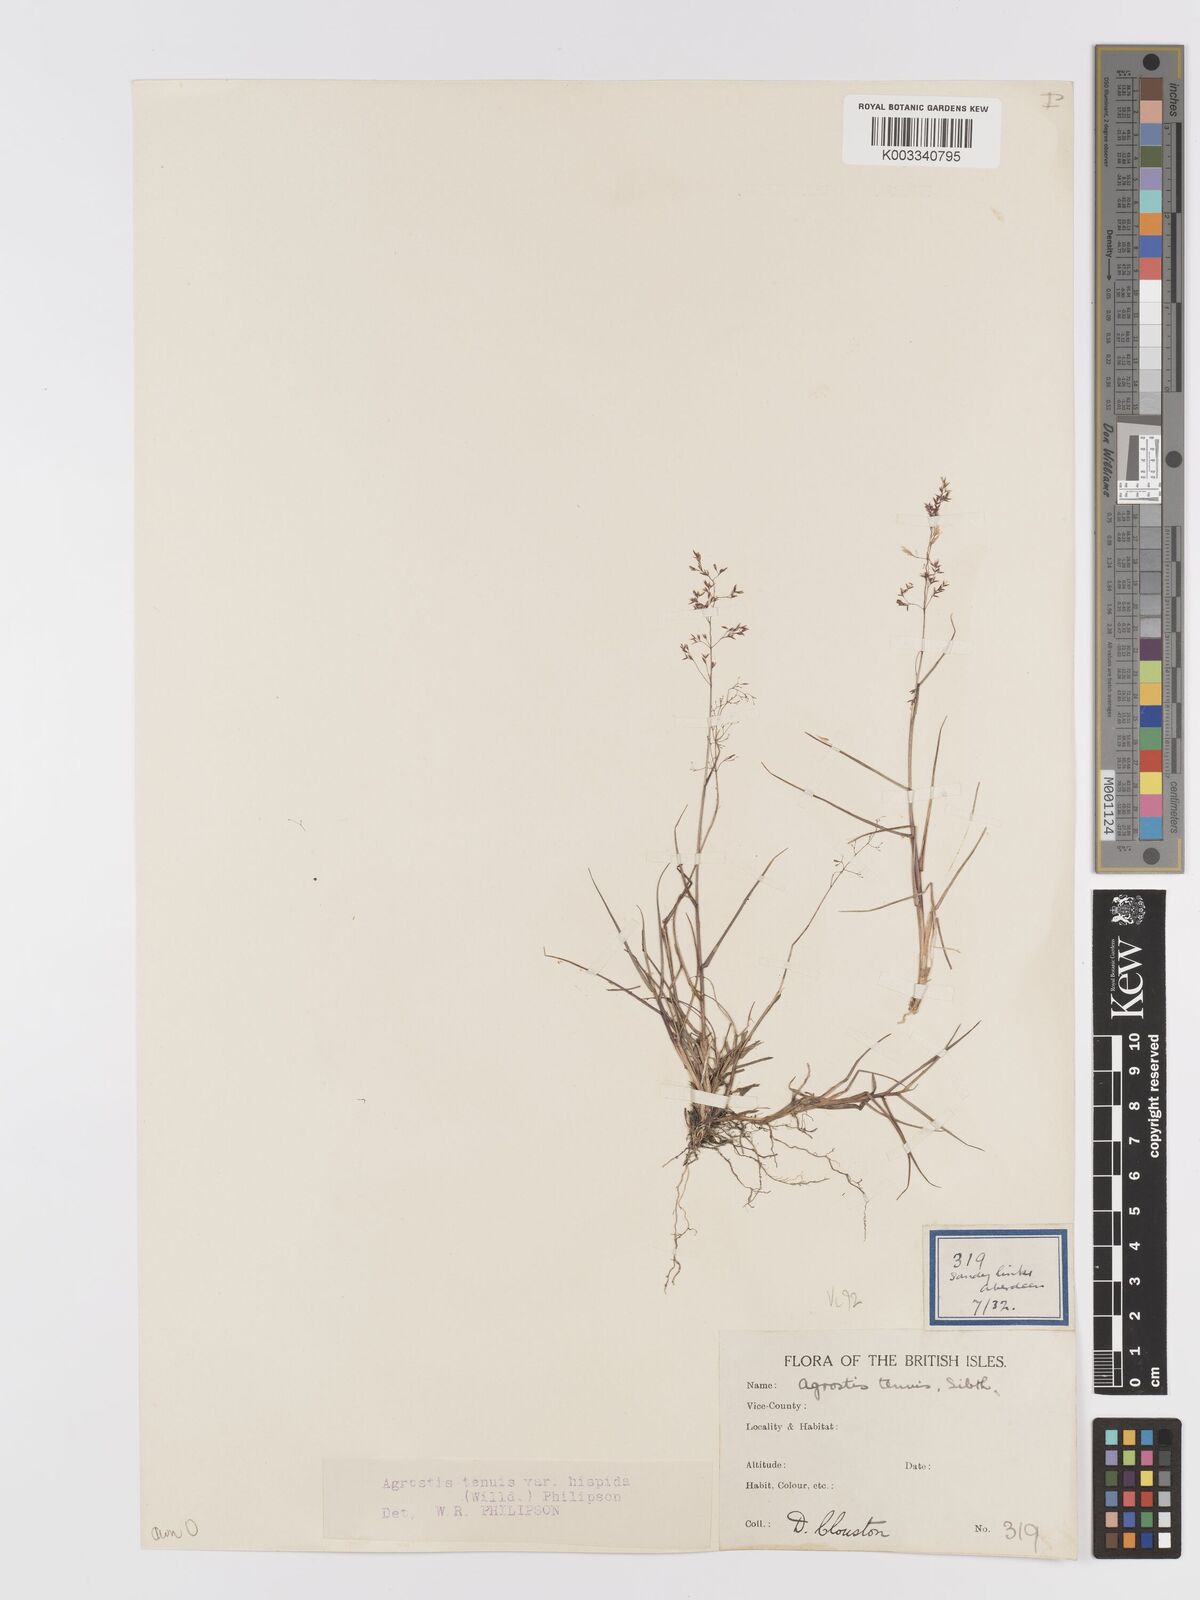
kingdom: Plantae
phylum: Tracheophyta
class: Liliopsida
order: Poales
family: Poaceae
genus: Agrostis
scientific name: Agrostis capillaris
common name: Colonial bentgrass
